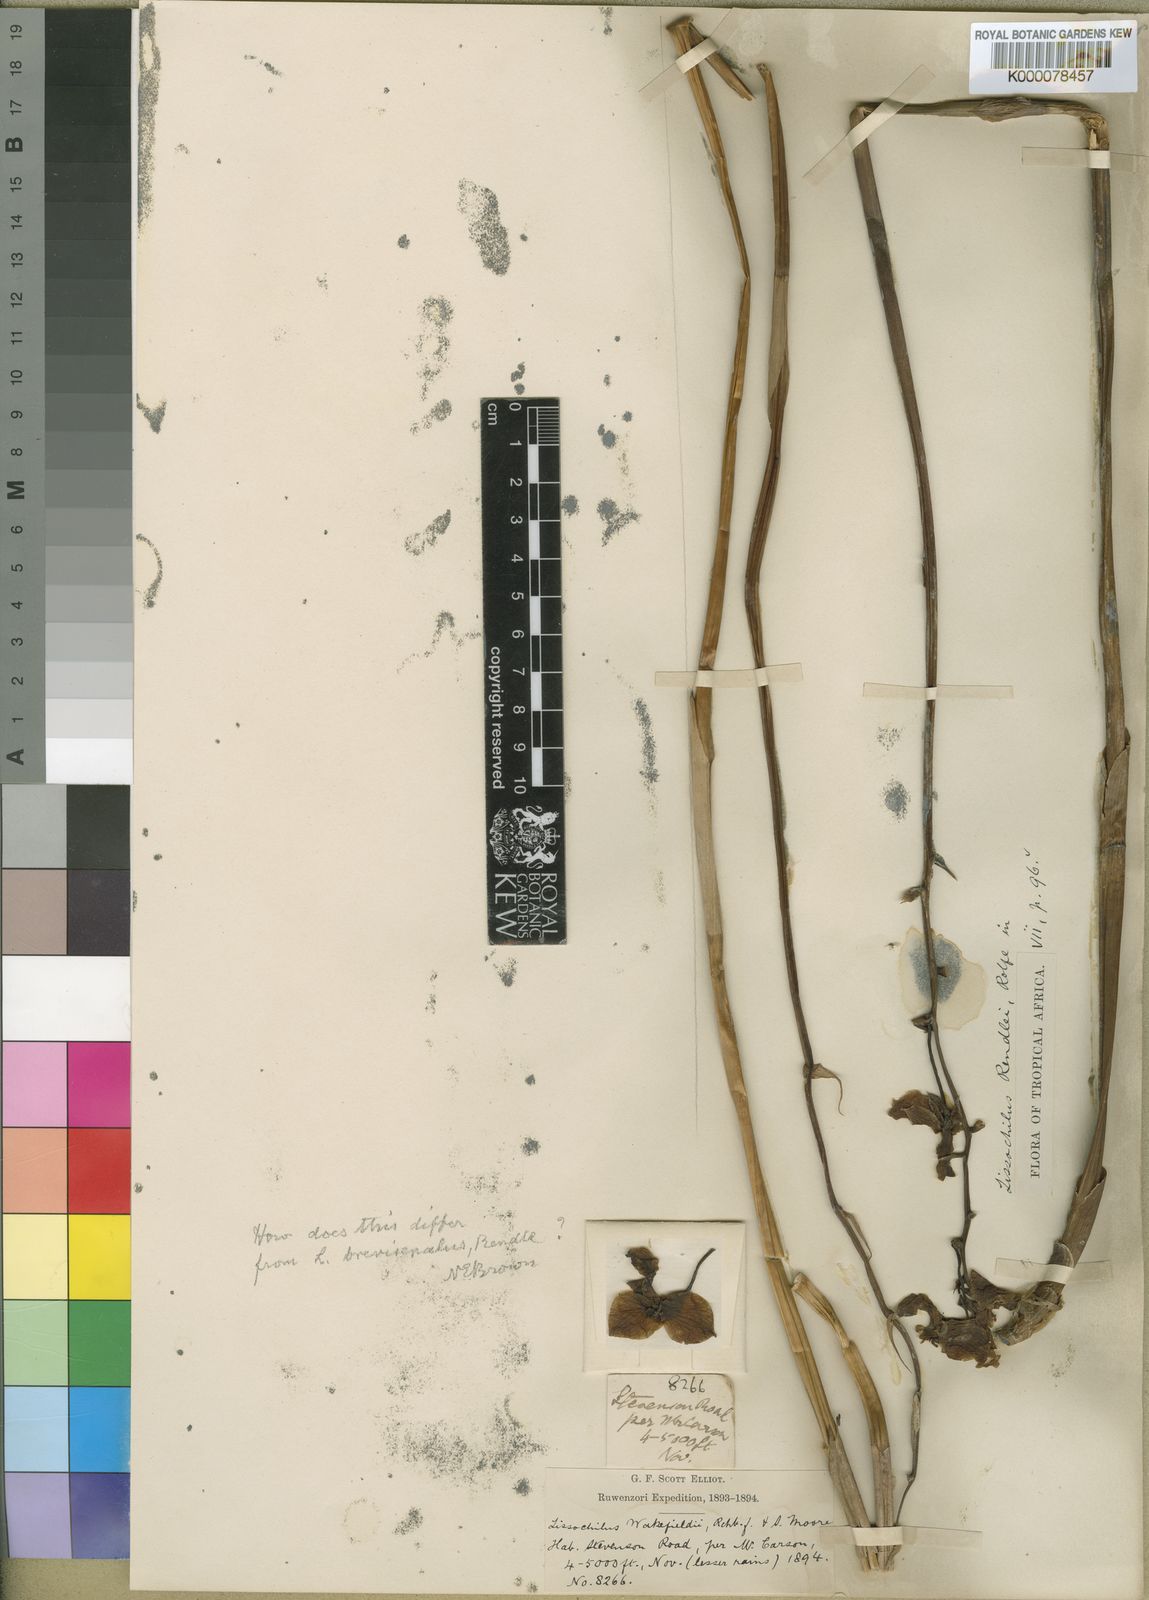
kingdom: Plantae
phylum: Tracheophyta
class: Liliopsida
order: Asparagales
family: Orchidaceae
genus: Eulophia
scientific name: Eulophia speciosa
